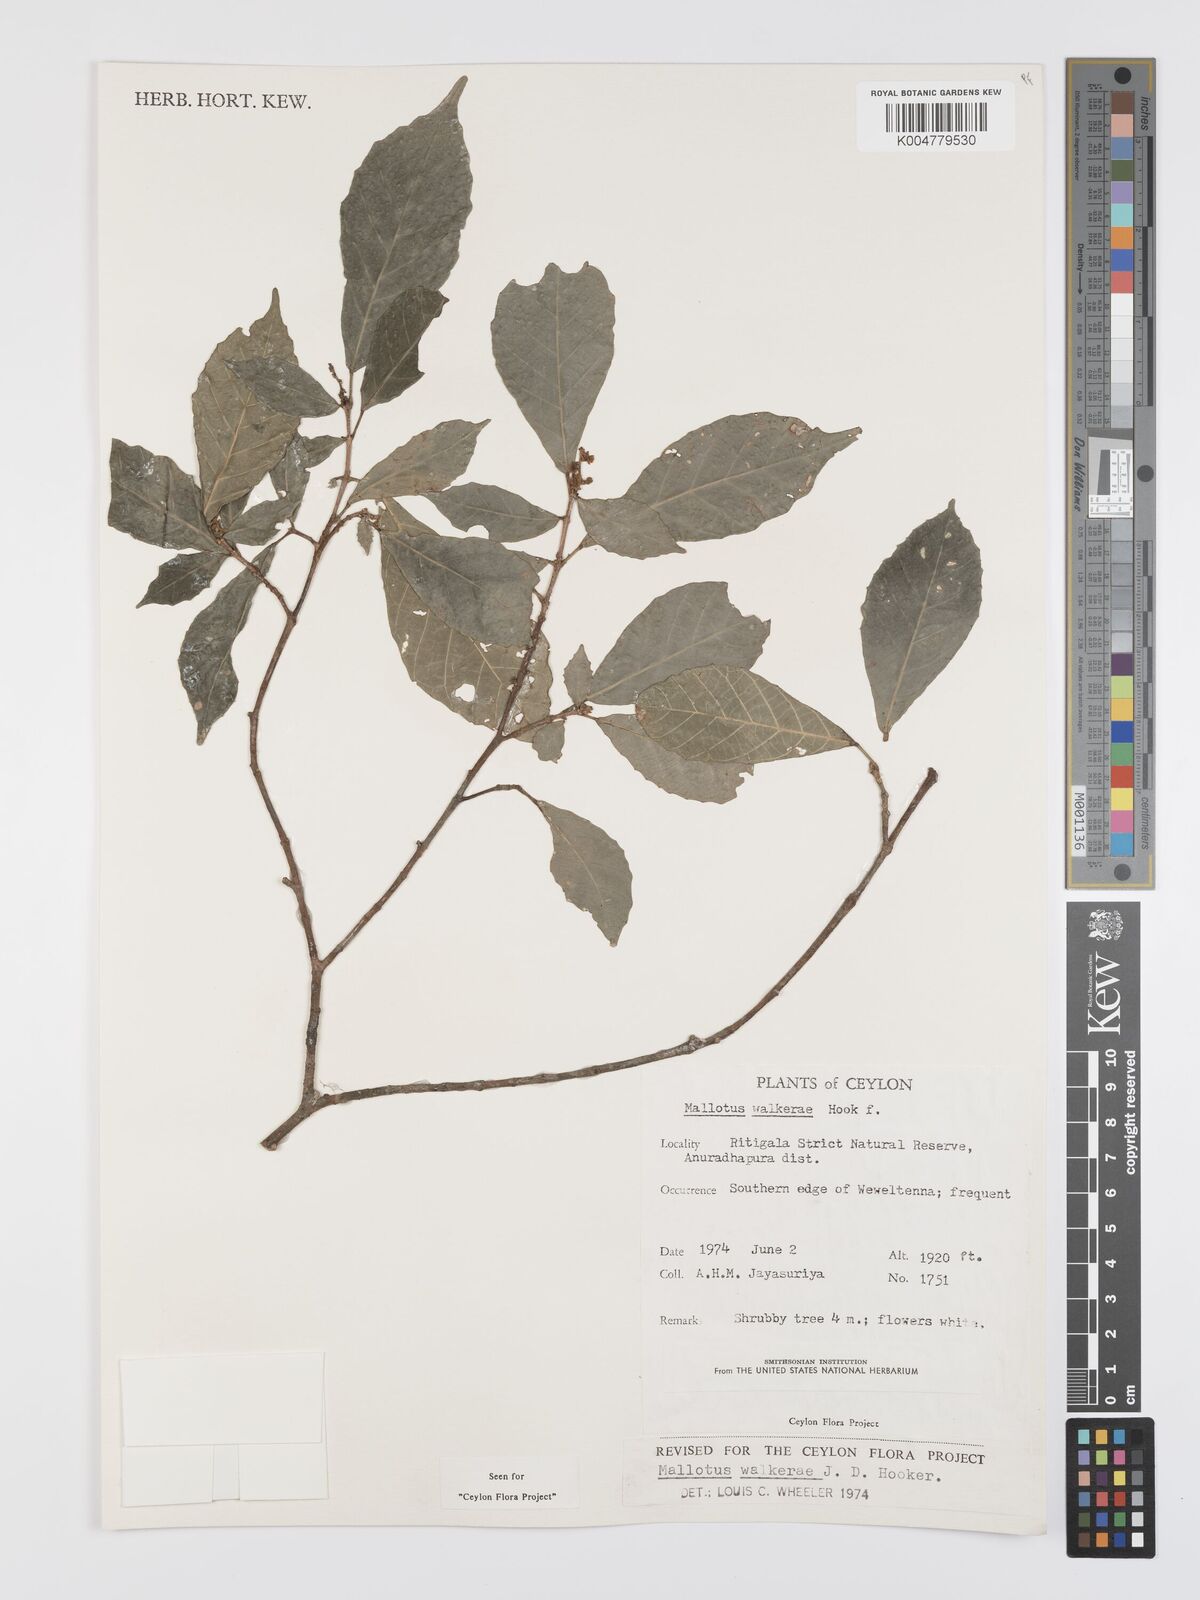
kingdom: Plantae
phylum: Tracheophyta
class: Magnoliopsida
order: Malpighiales
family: Euphorbiaceae
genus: Mallotus
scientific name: Mallotus resinosus
